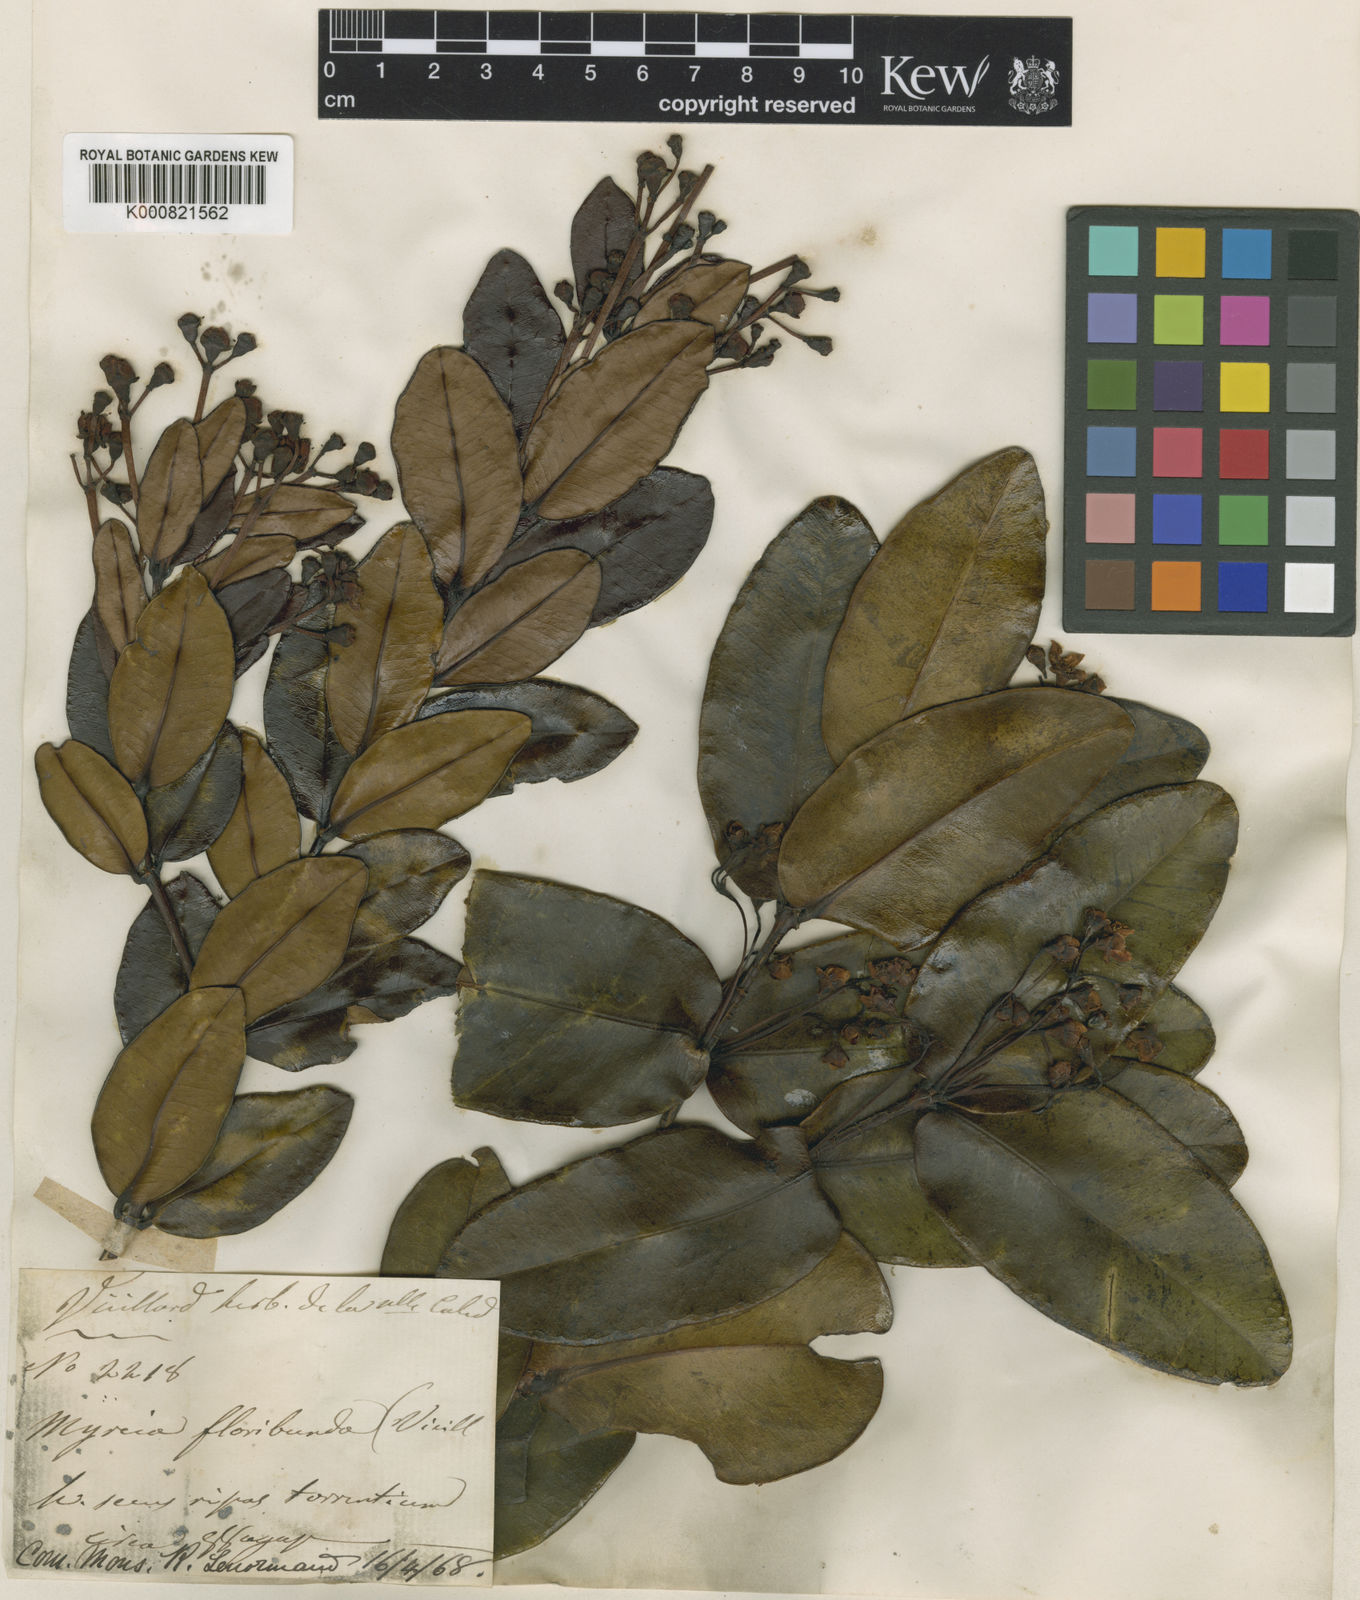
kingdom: Plantae
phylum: Tracheophyta
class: Magnoliopsida
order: Myrtales
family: Myrtaceae
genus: Gossia
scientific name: Gossia kuakuensis
